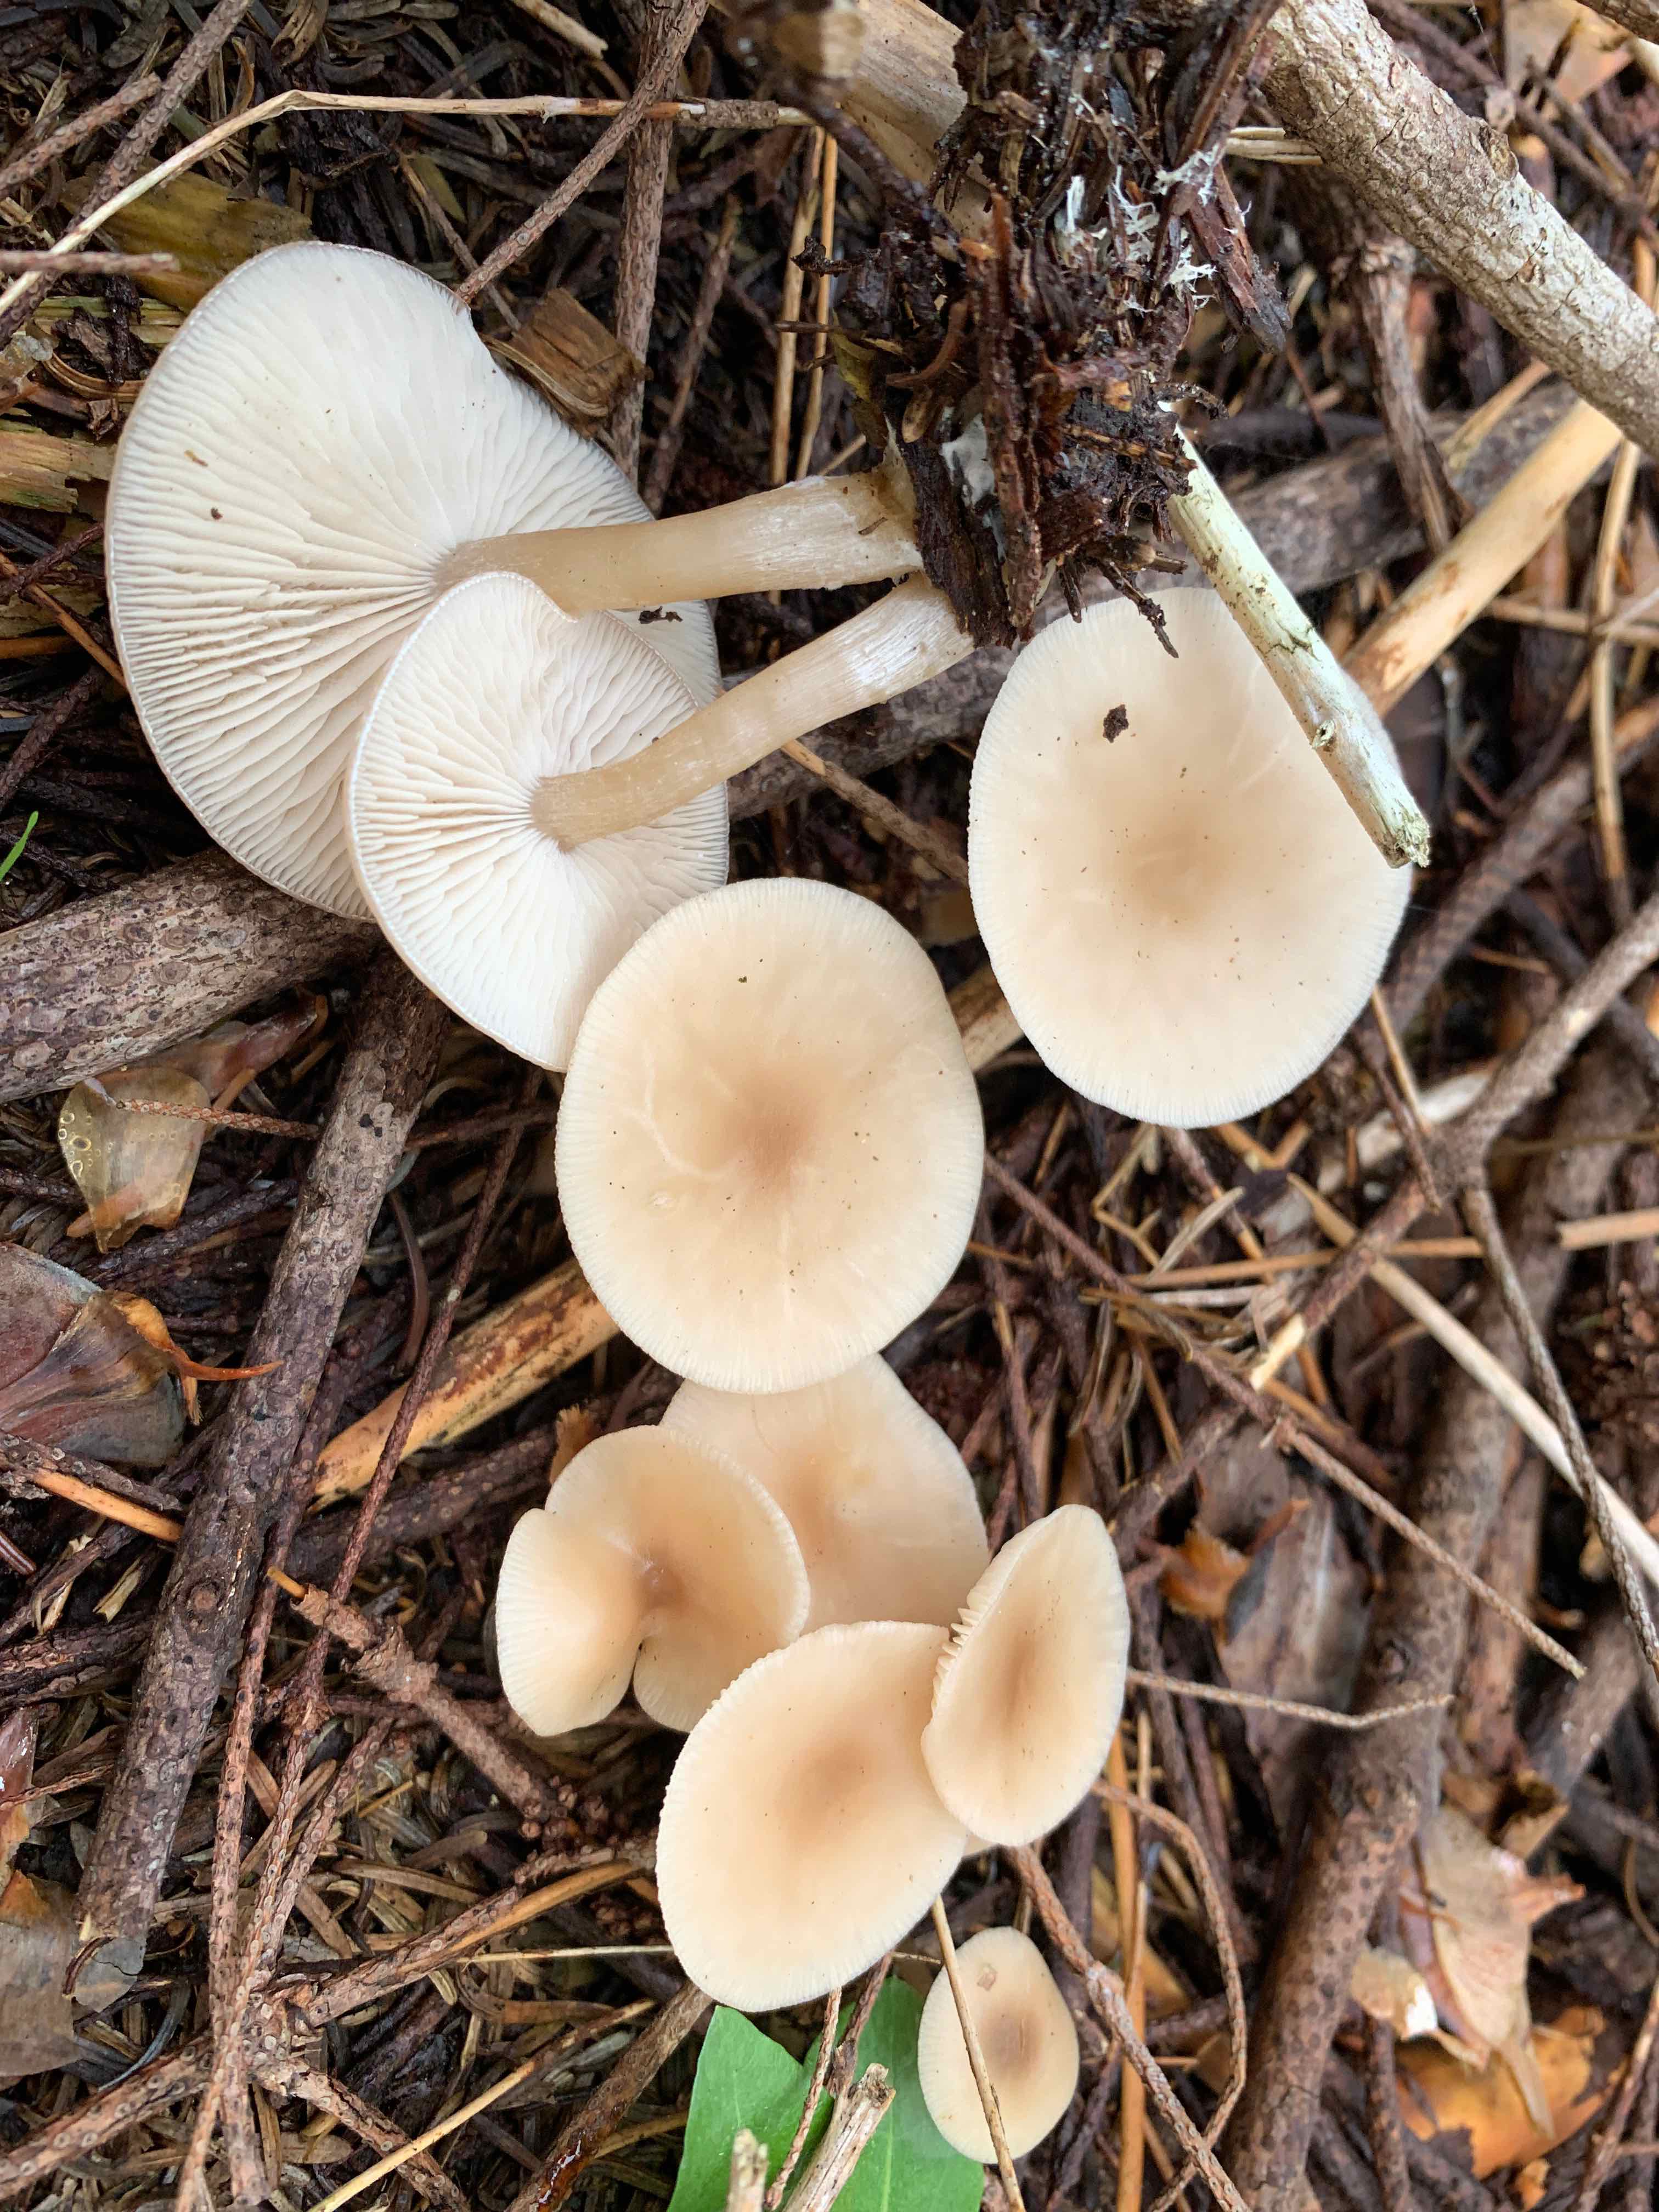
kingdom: Fungi
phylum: Basidiomycota
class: Agaricomycetes
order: Agaricales
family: Tricholomataceae
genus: Clitocybe
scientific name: Clitocybe fragrans
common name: vellugtende tragthat
